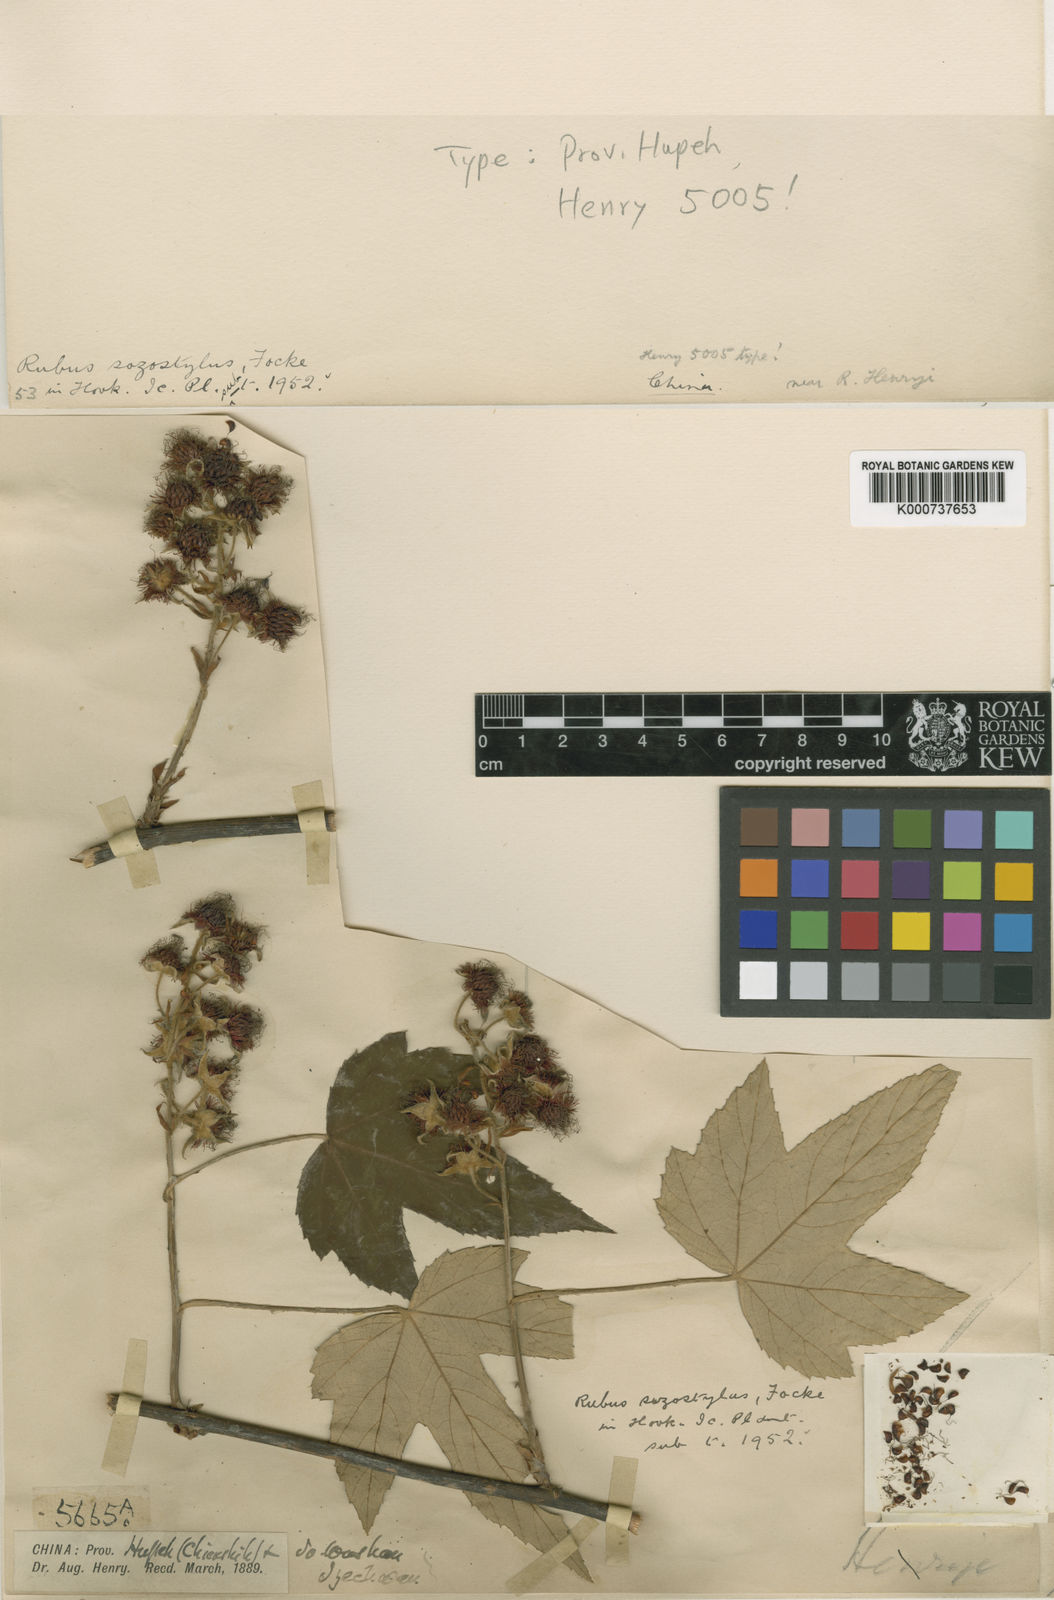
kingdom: Plantae
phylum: Tracheophyta
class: Magnoliopsida
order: Rosales
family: Rosaceae
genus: Rubus
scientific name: Rubus henryi
